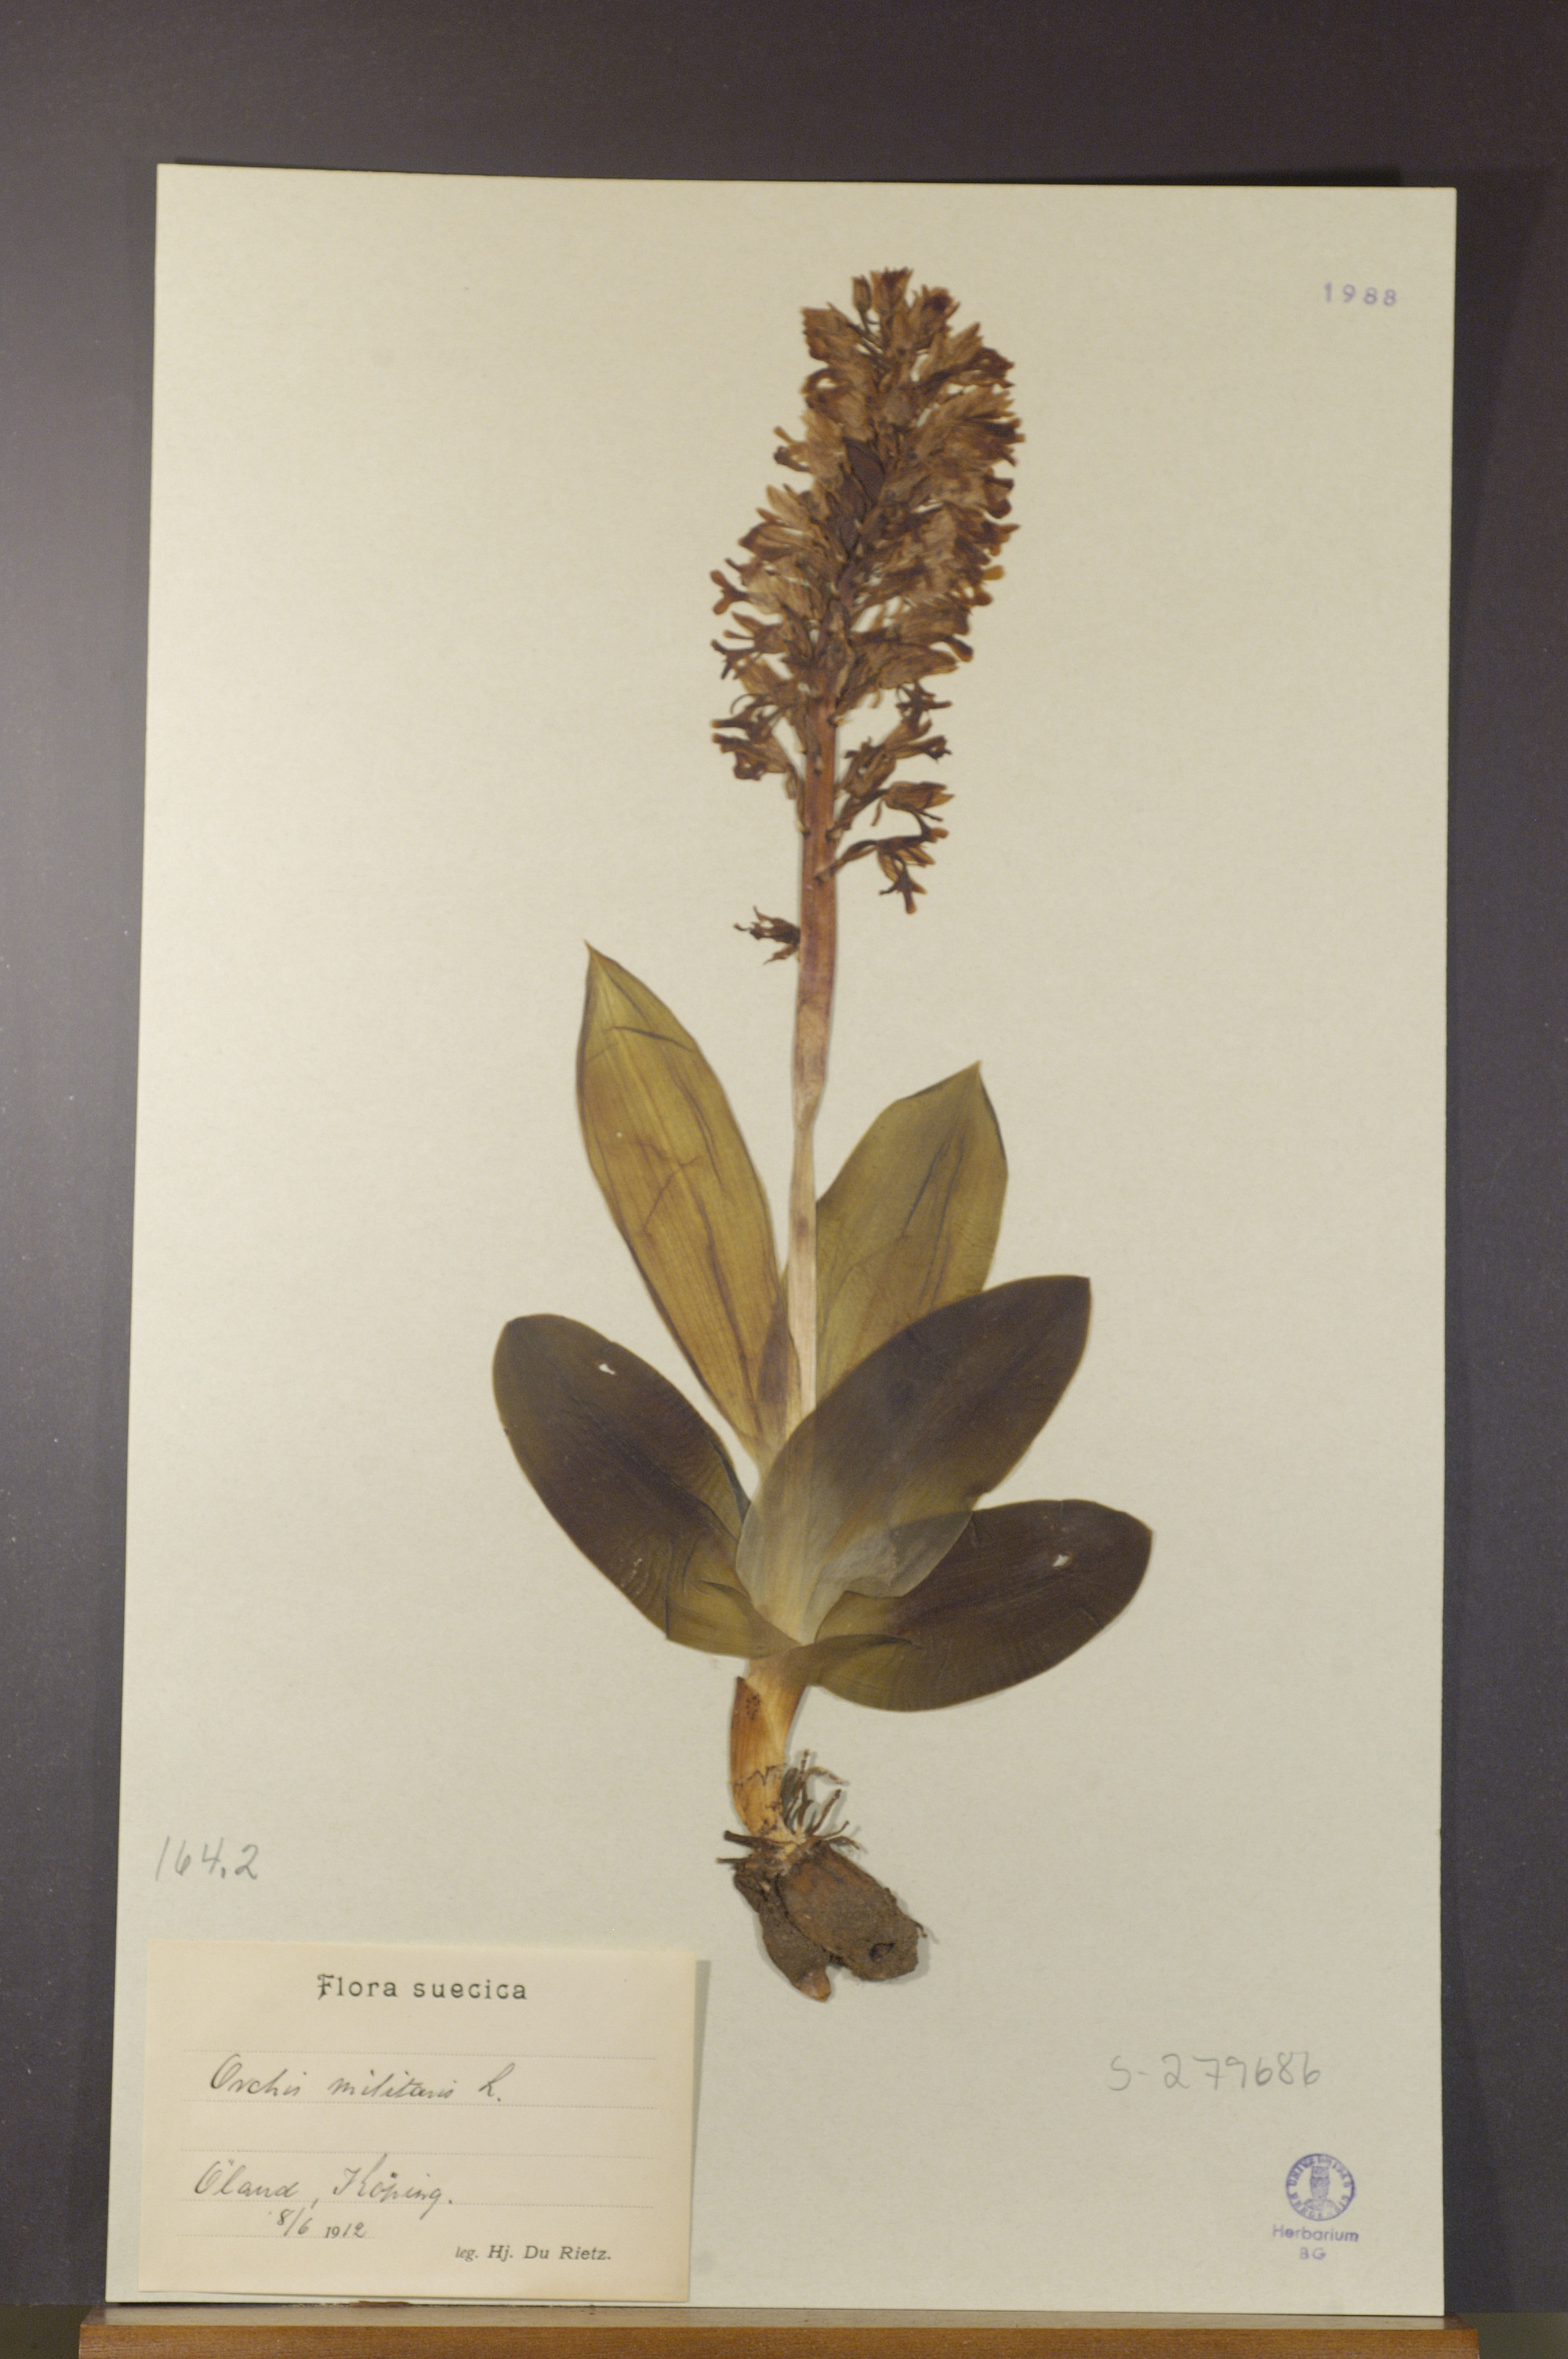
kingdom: Plantae
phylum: Tracheophyta
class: Liliopsida
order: Asparagales
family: Orchidaceae
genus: Orchis
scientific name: Orchis militaris
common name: Military orchid
